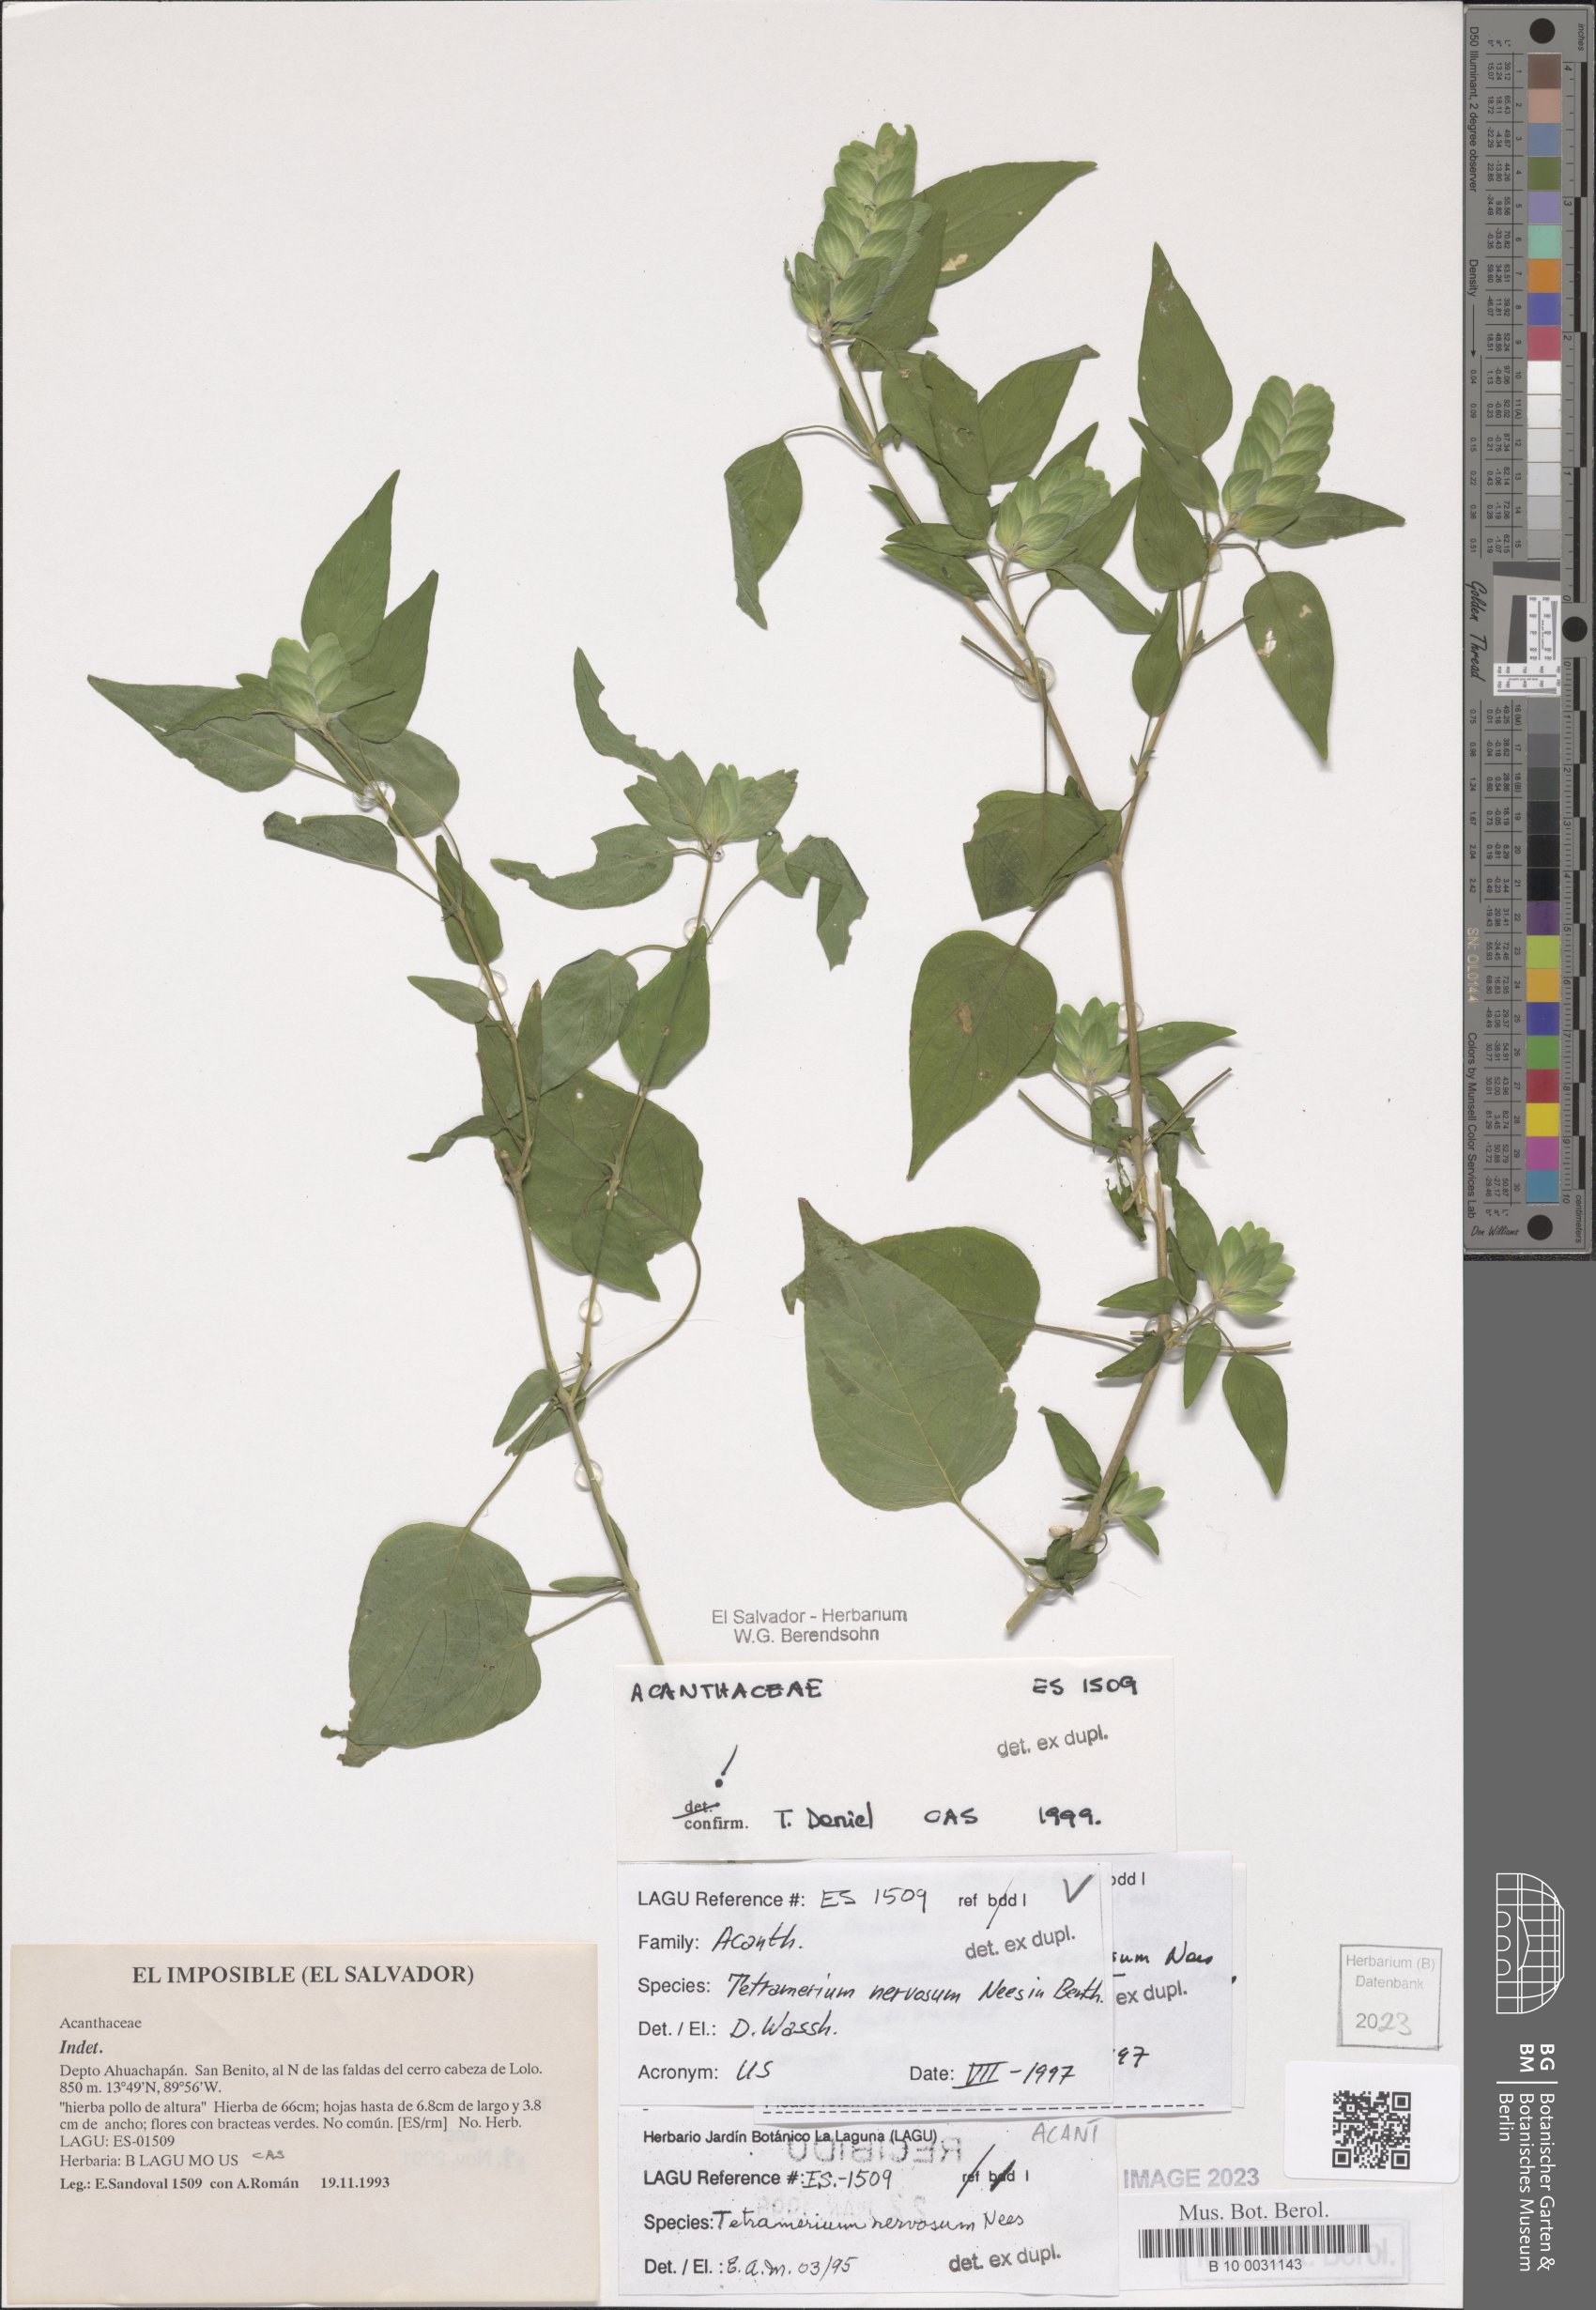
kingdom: Plantae
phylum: Tracheophyta
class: Magnoliopsida
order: Lamiales
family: Acanthaceae
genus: Tetramerium
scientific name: Tetramerium nervosum
